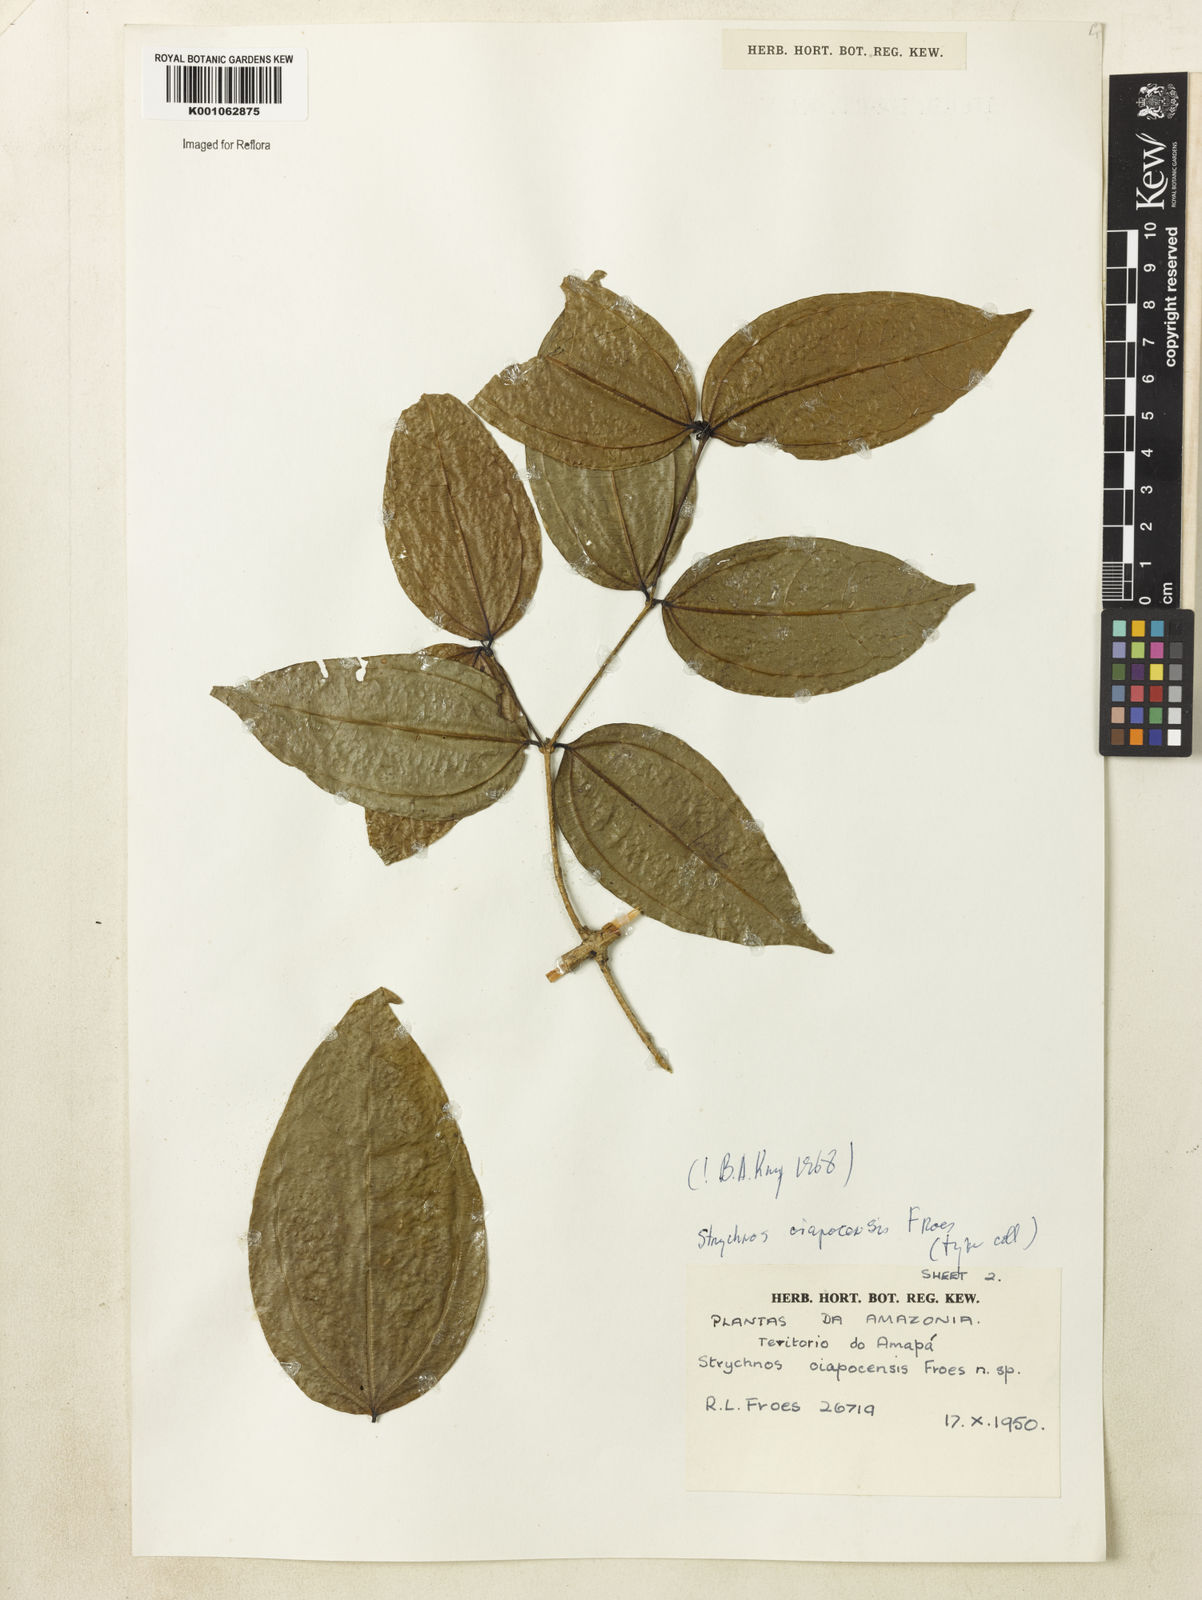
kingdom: Plantae
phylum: Tracheophyta
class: Magnoliopsida
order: Gentianales
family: Loganiaceae
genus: Strychnos
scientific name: Strychnos
